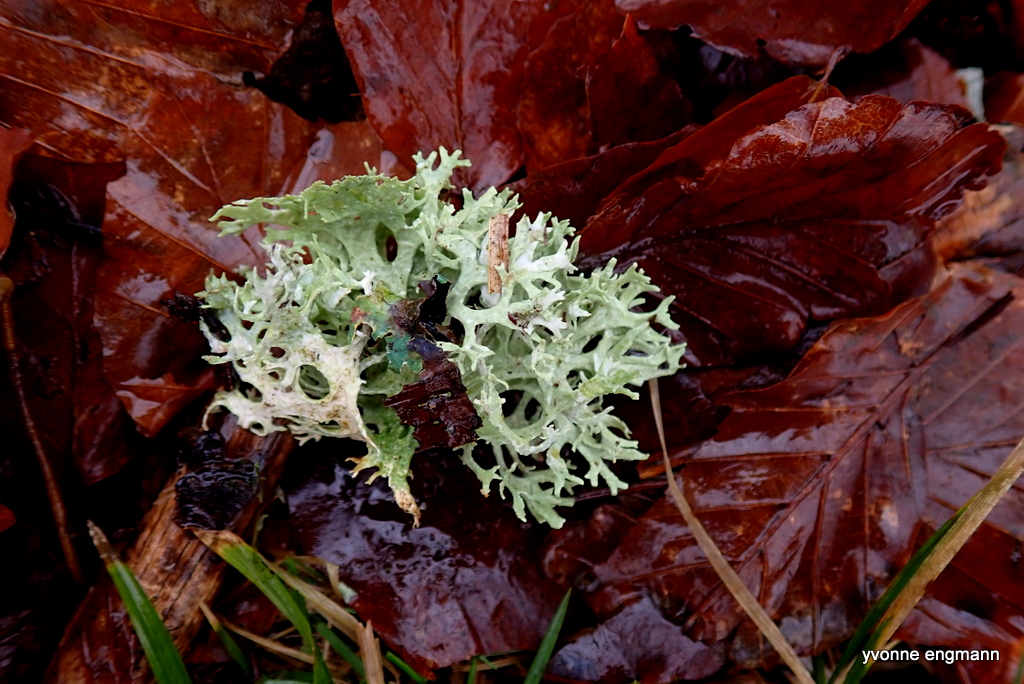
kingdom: Fungi
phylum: Ascomycota
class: Lecanoromycetes
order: Lecanorales
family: Parmeliaceae
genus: Evernia
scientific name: Evernia prunastri
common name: almindelig slåenlav
